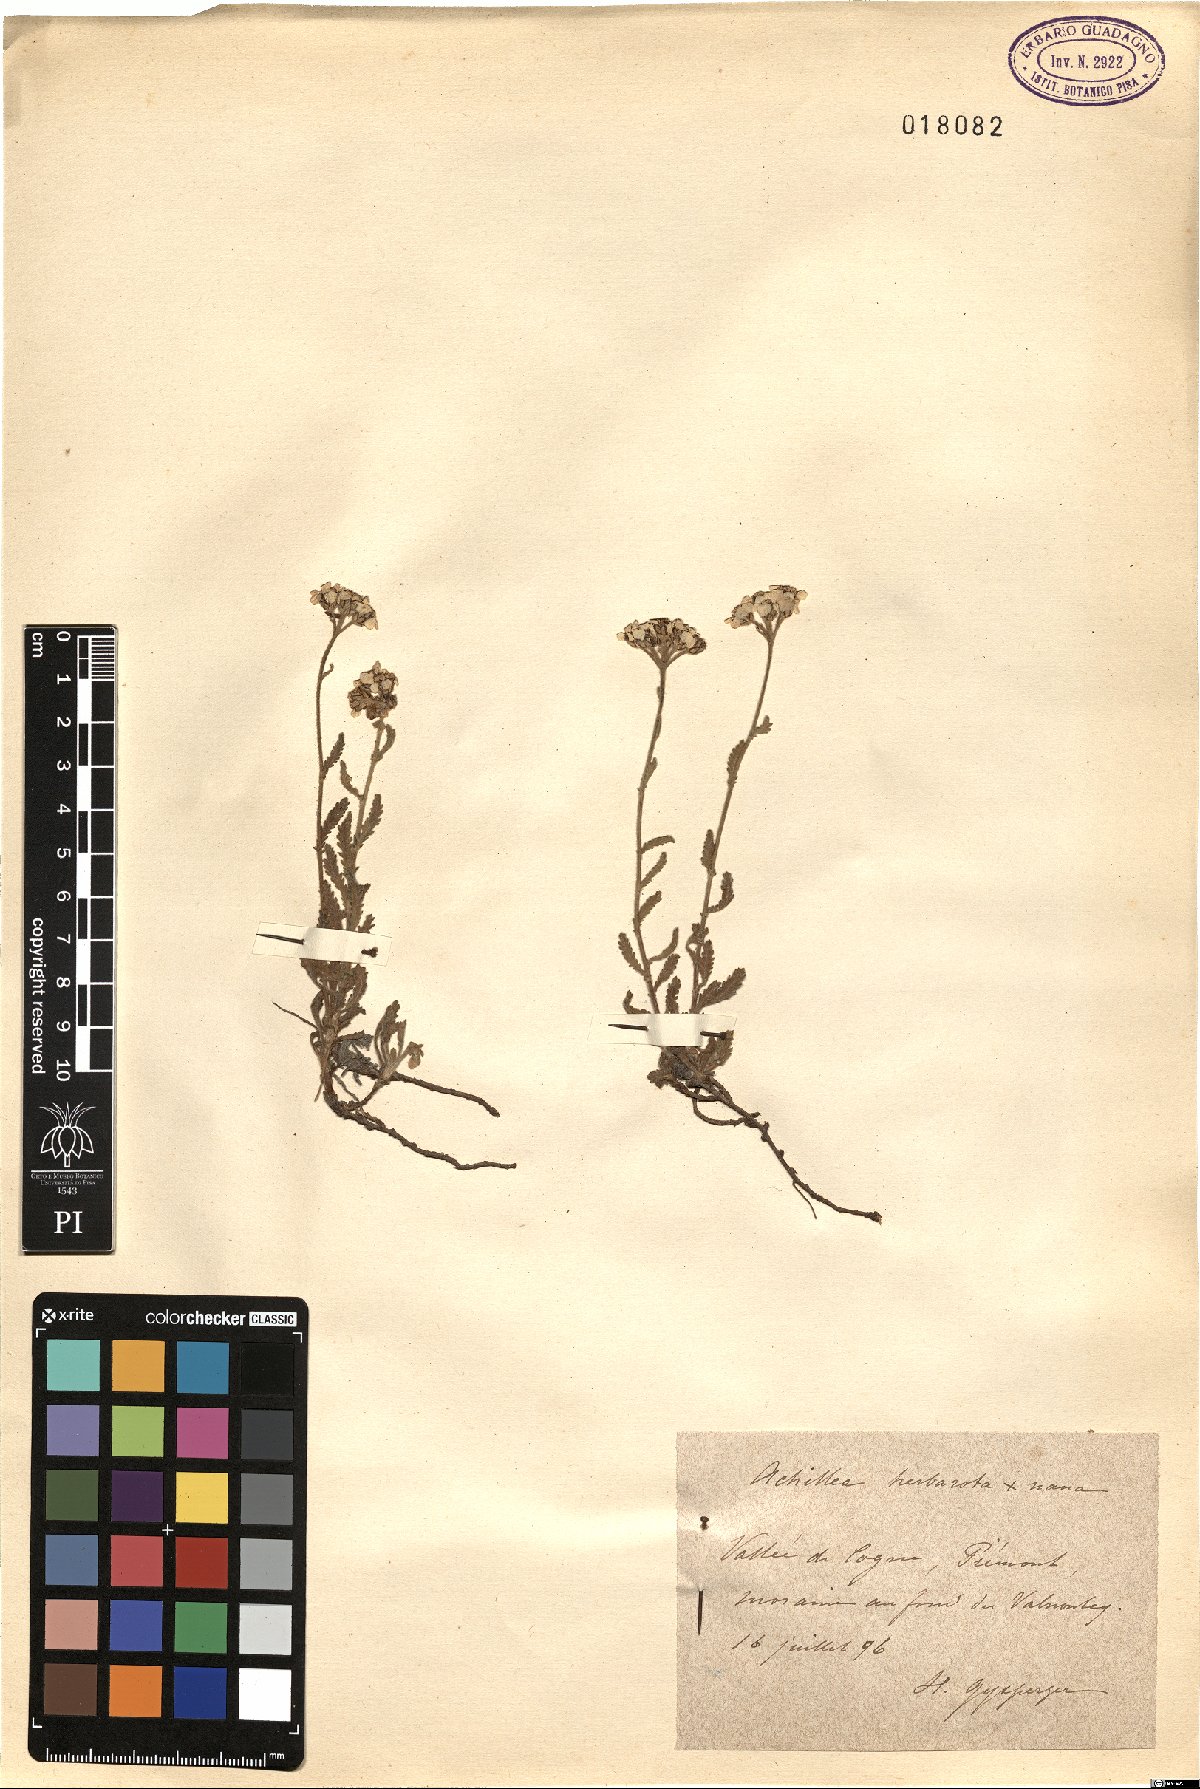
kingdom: Plantae
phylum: Tracheophyta
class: Magnoliopsida
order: Asterales
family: Asteraceae
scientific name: Asteraceae
